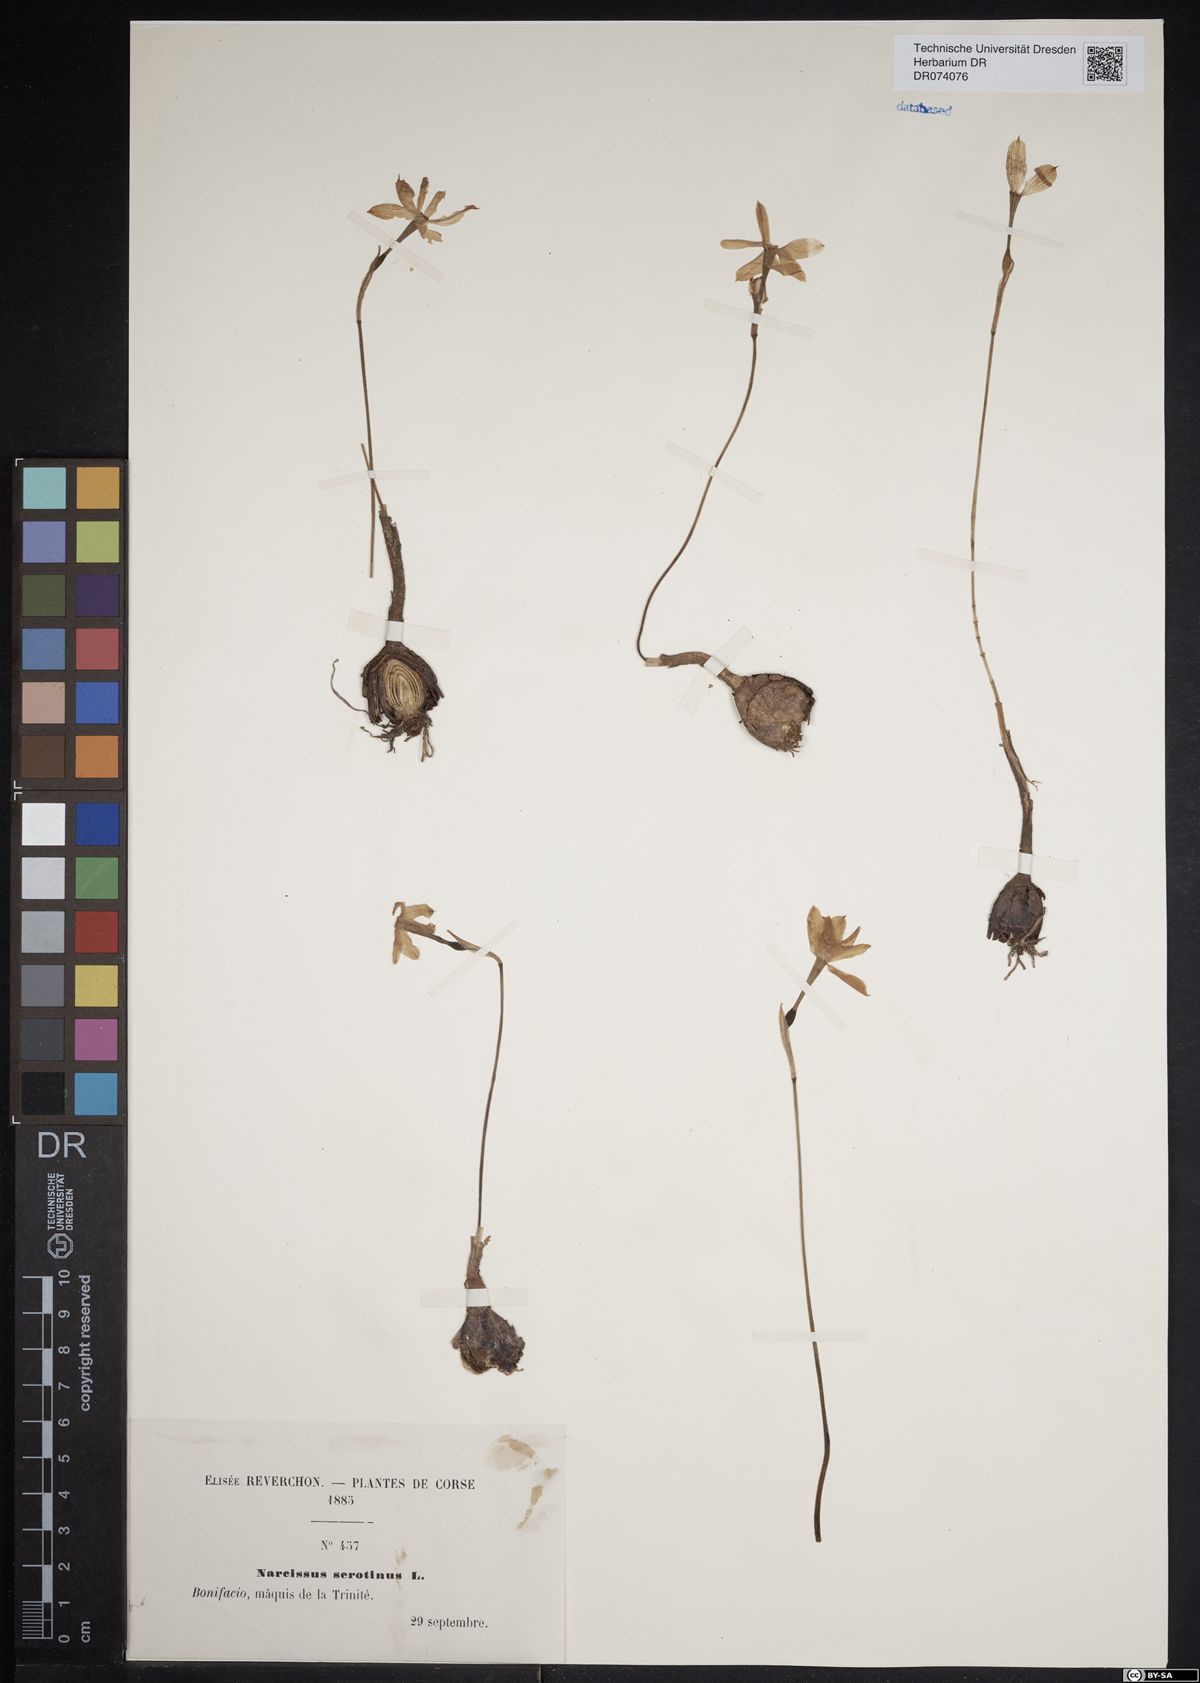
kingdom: Plantae
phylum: Tracheophyta
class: Liliopsida
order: Asparagales
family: Amaryllidaceae
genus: Narcissus
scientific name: Narcissus serotinus
